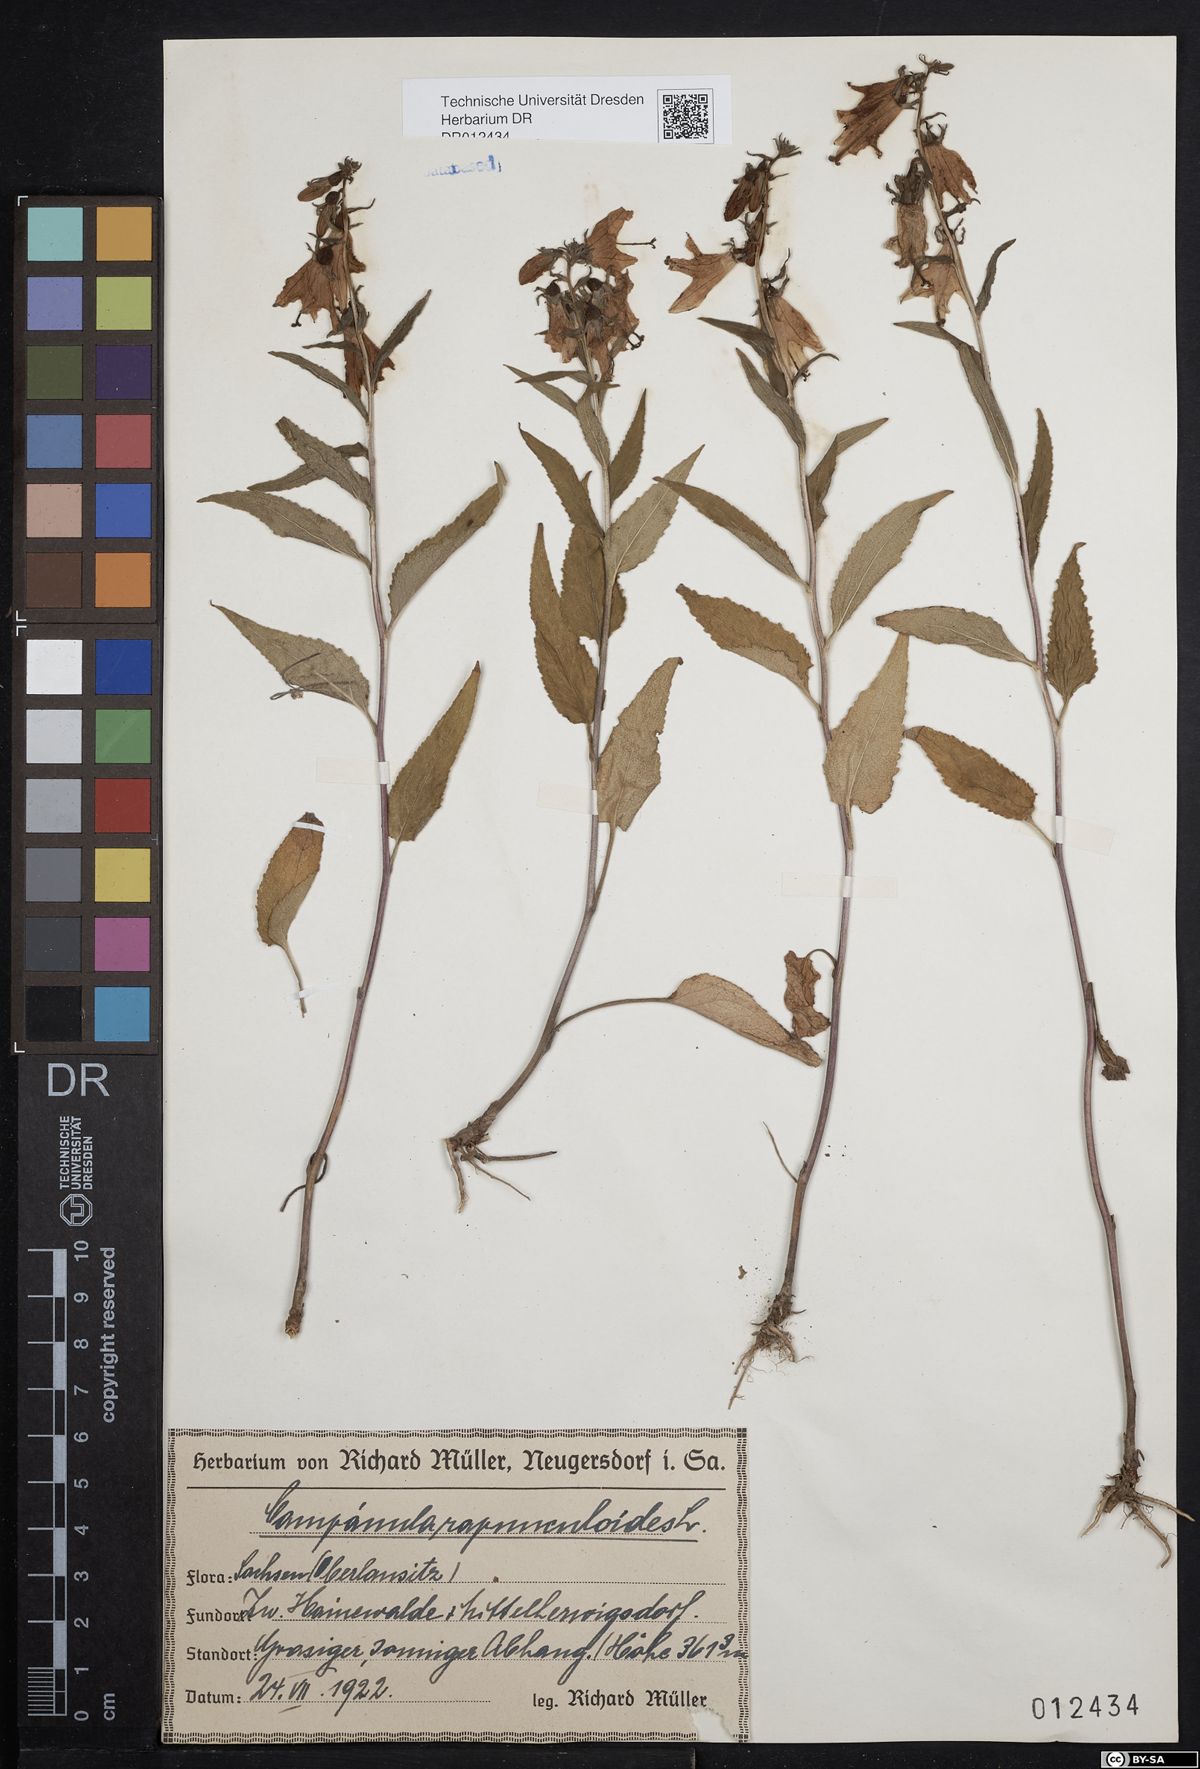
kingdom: Plantae
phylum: Tracheophyta
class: Magnoliopsida
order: Asterales
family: Campanulaceae
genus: Campanula
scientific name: Campanula rapunculoides
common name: Creeping bellflower
